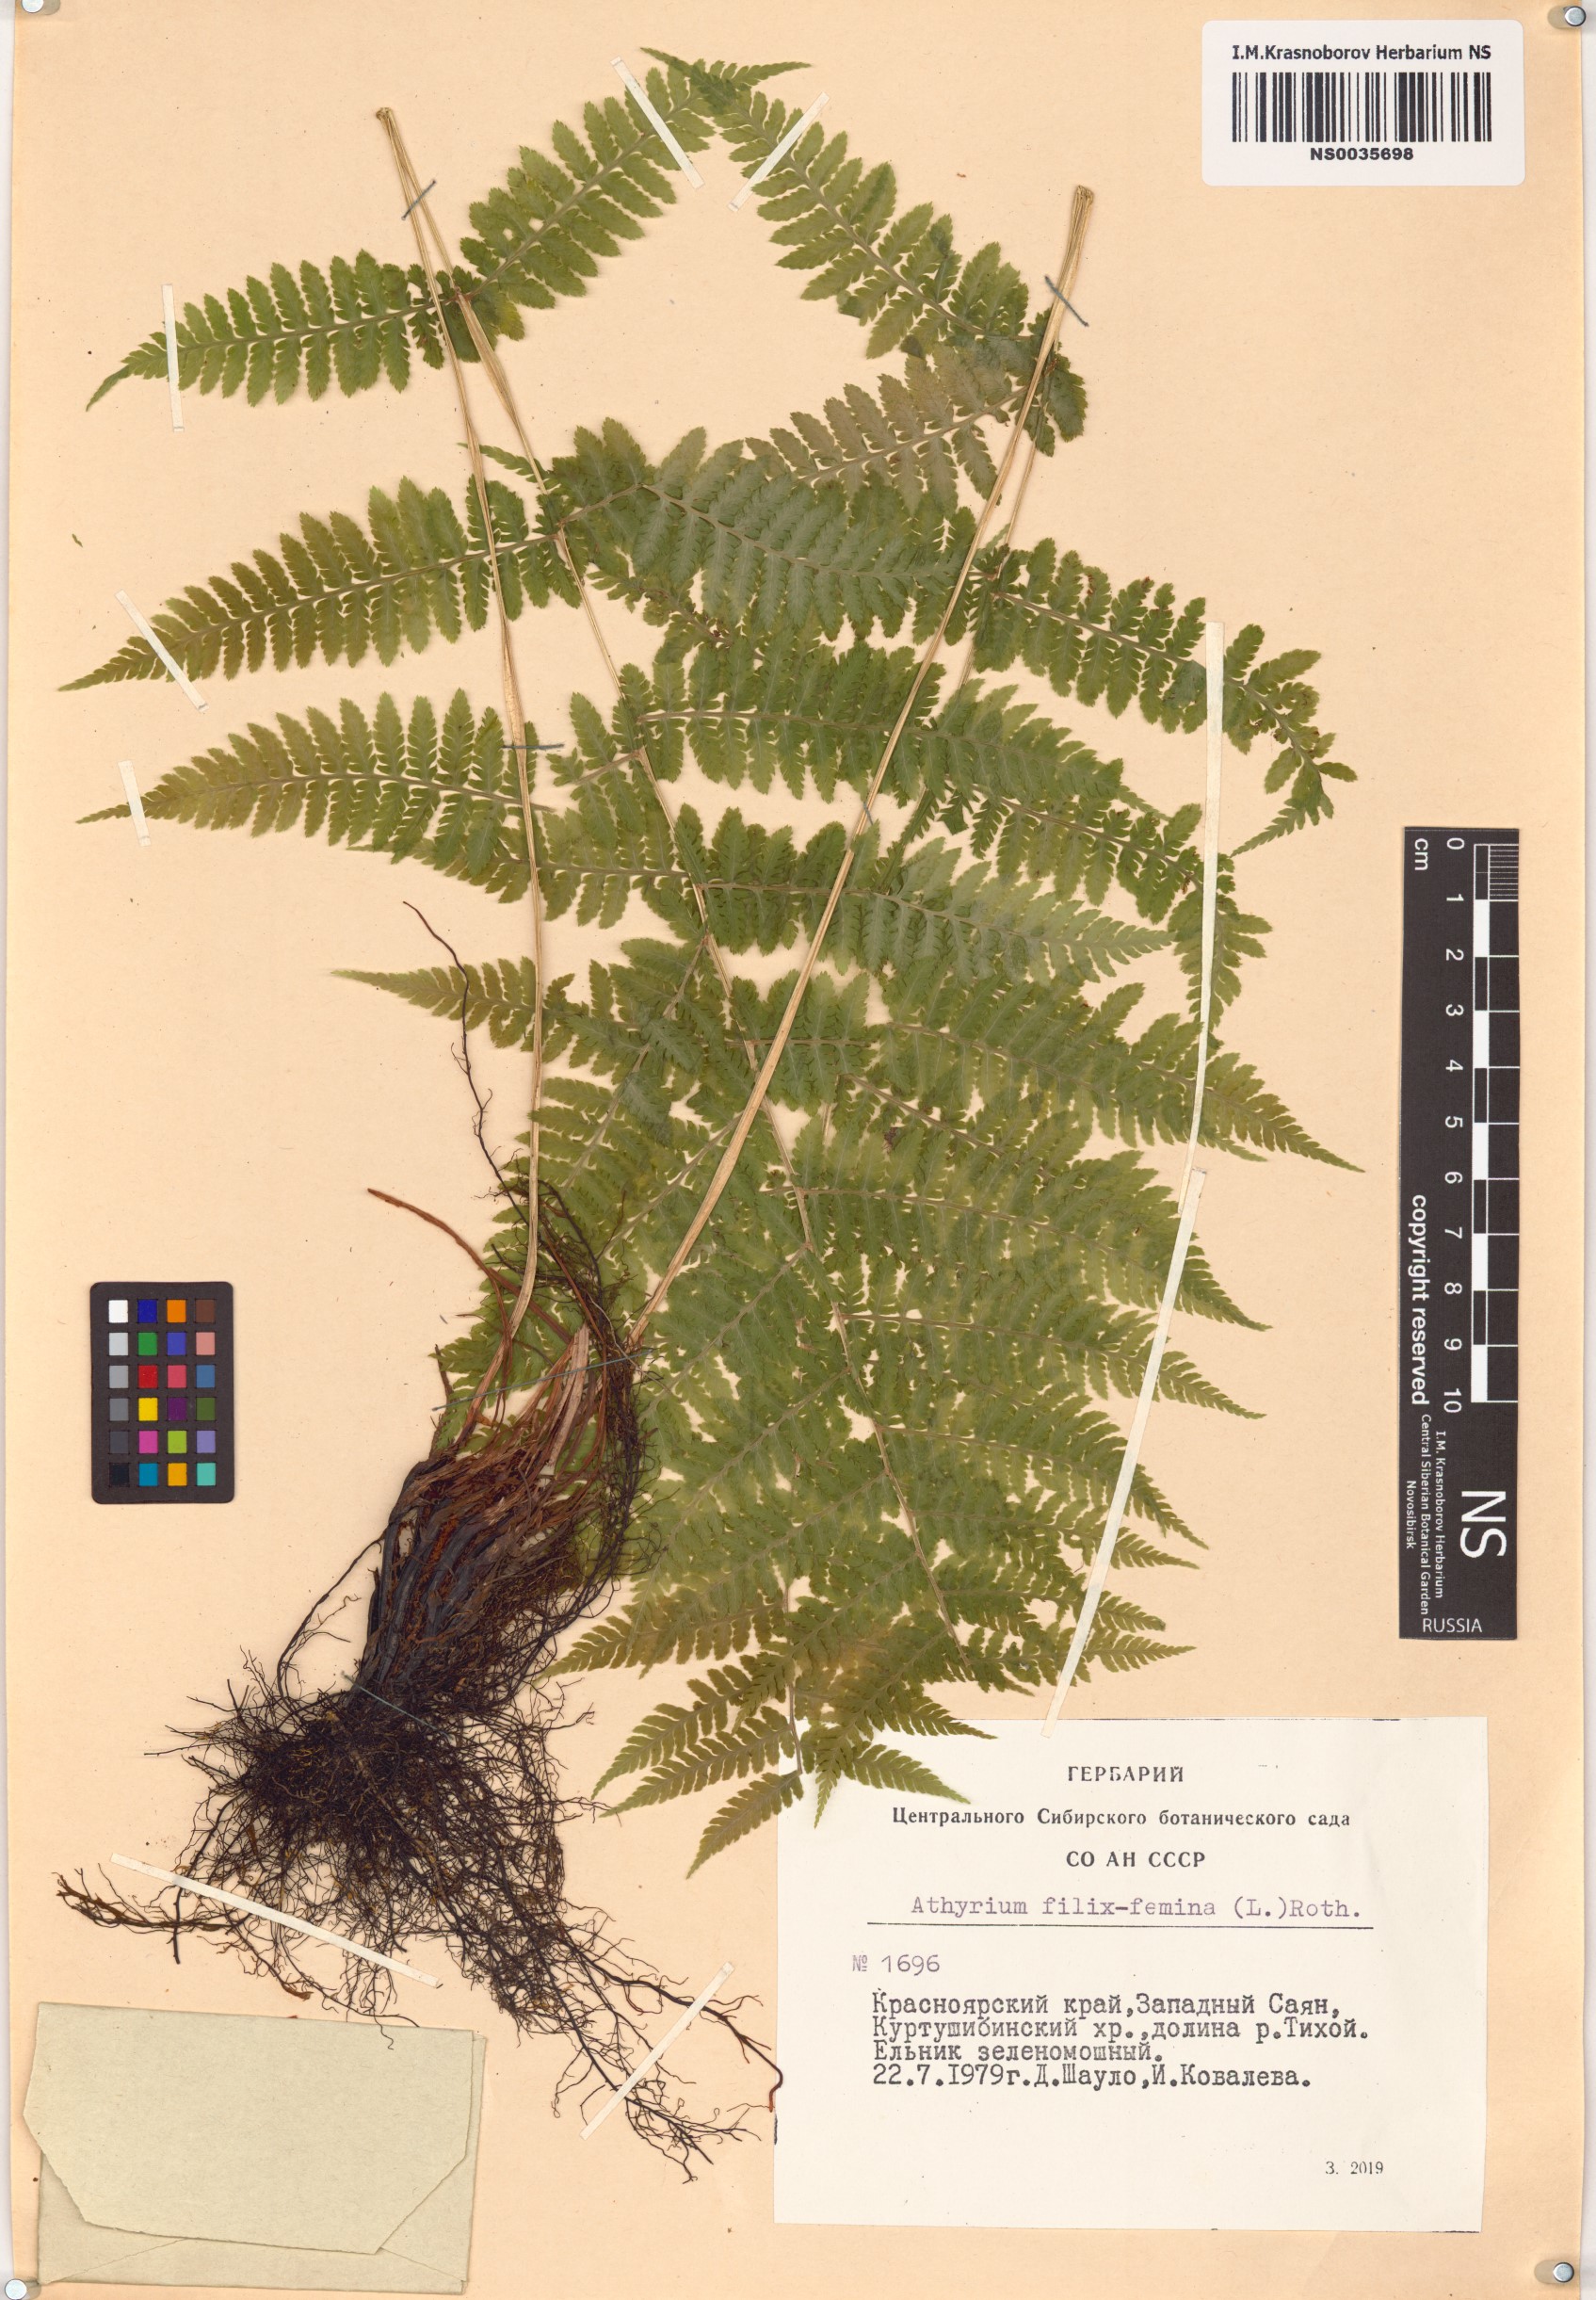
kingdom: Plantae
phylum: Tracheophyta
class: Polypodiopsida
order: Polypodiales
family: Athyriaceae
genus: Athyrium
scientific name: Athyrium filix-femina
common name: Lady fern
